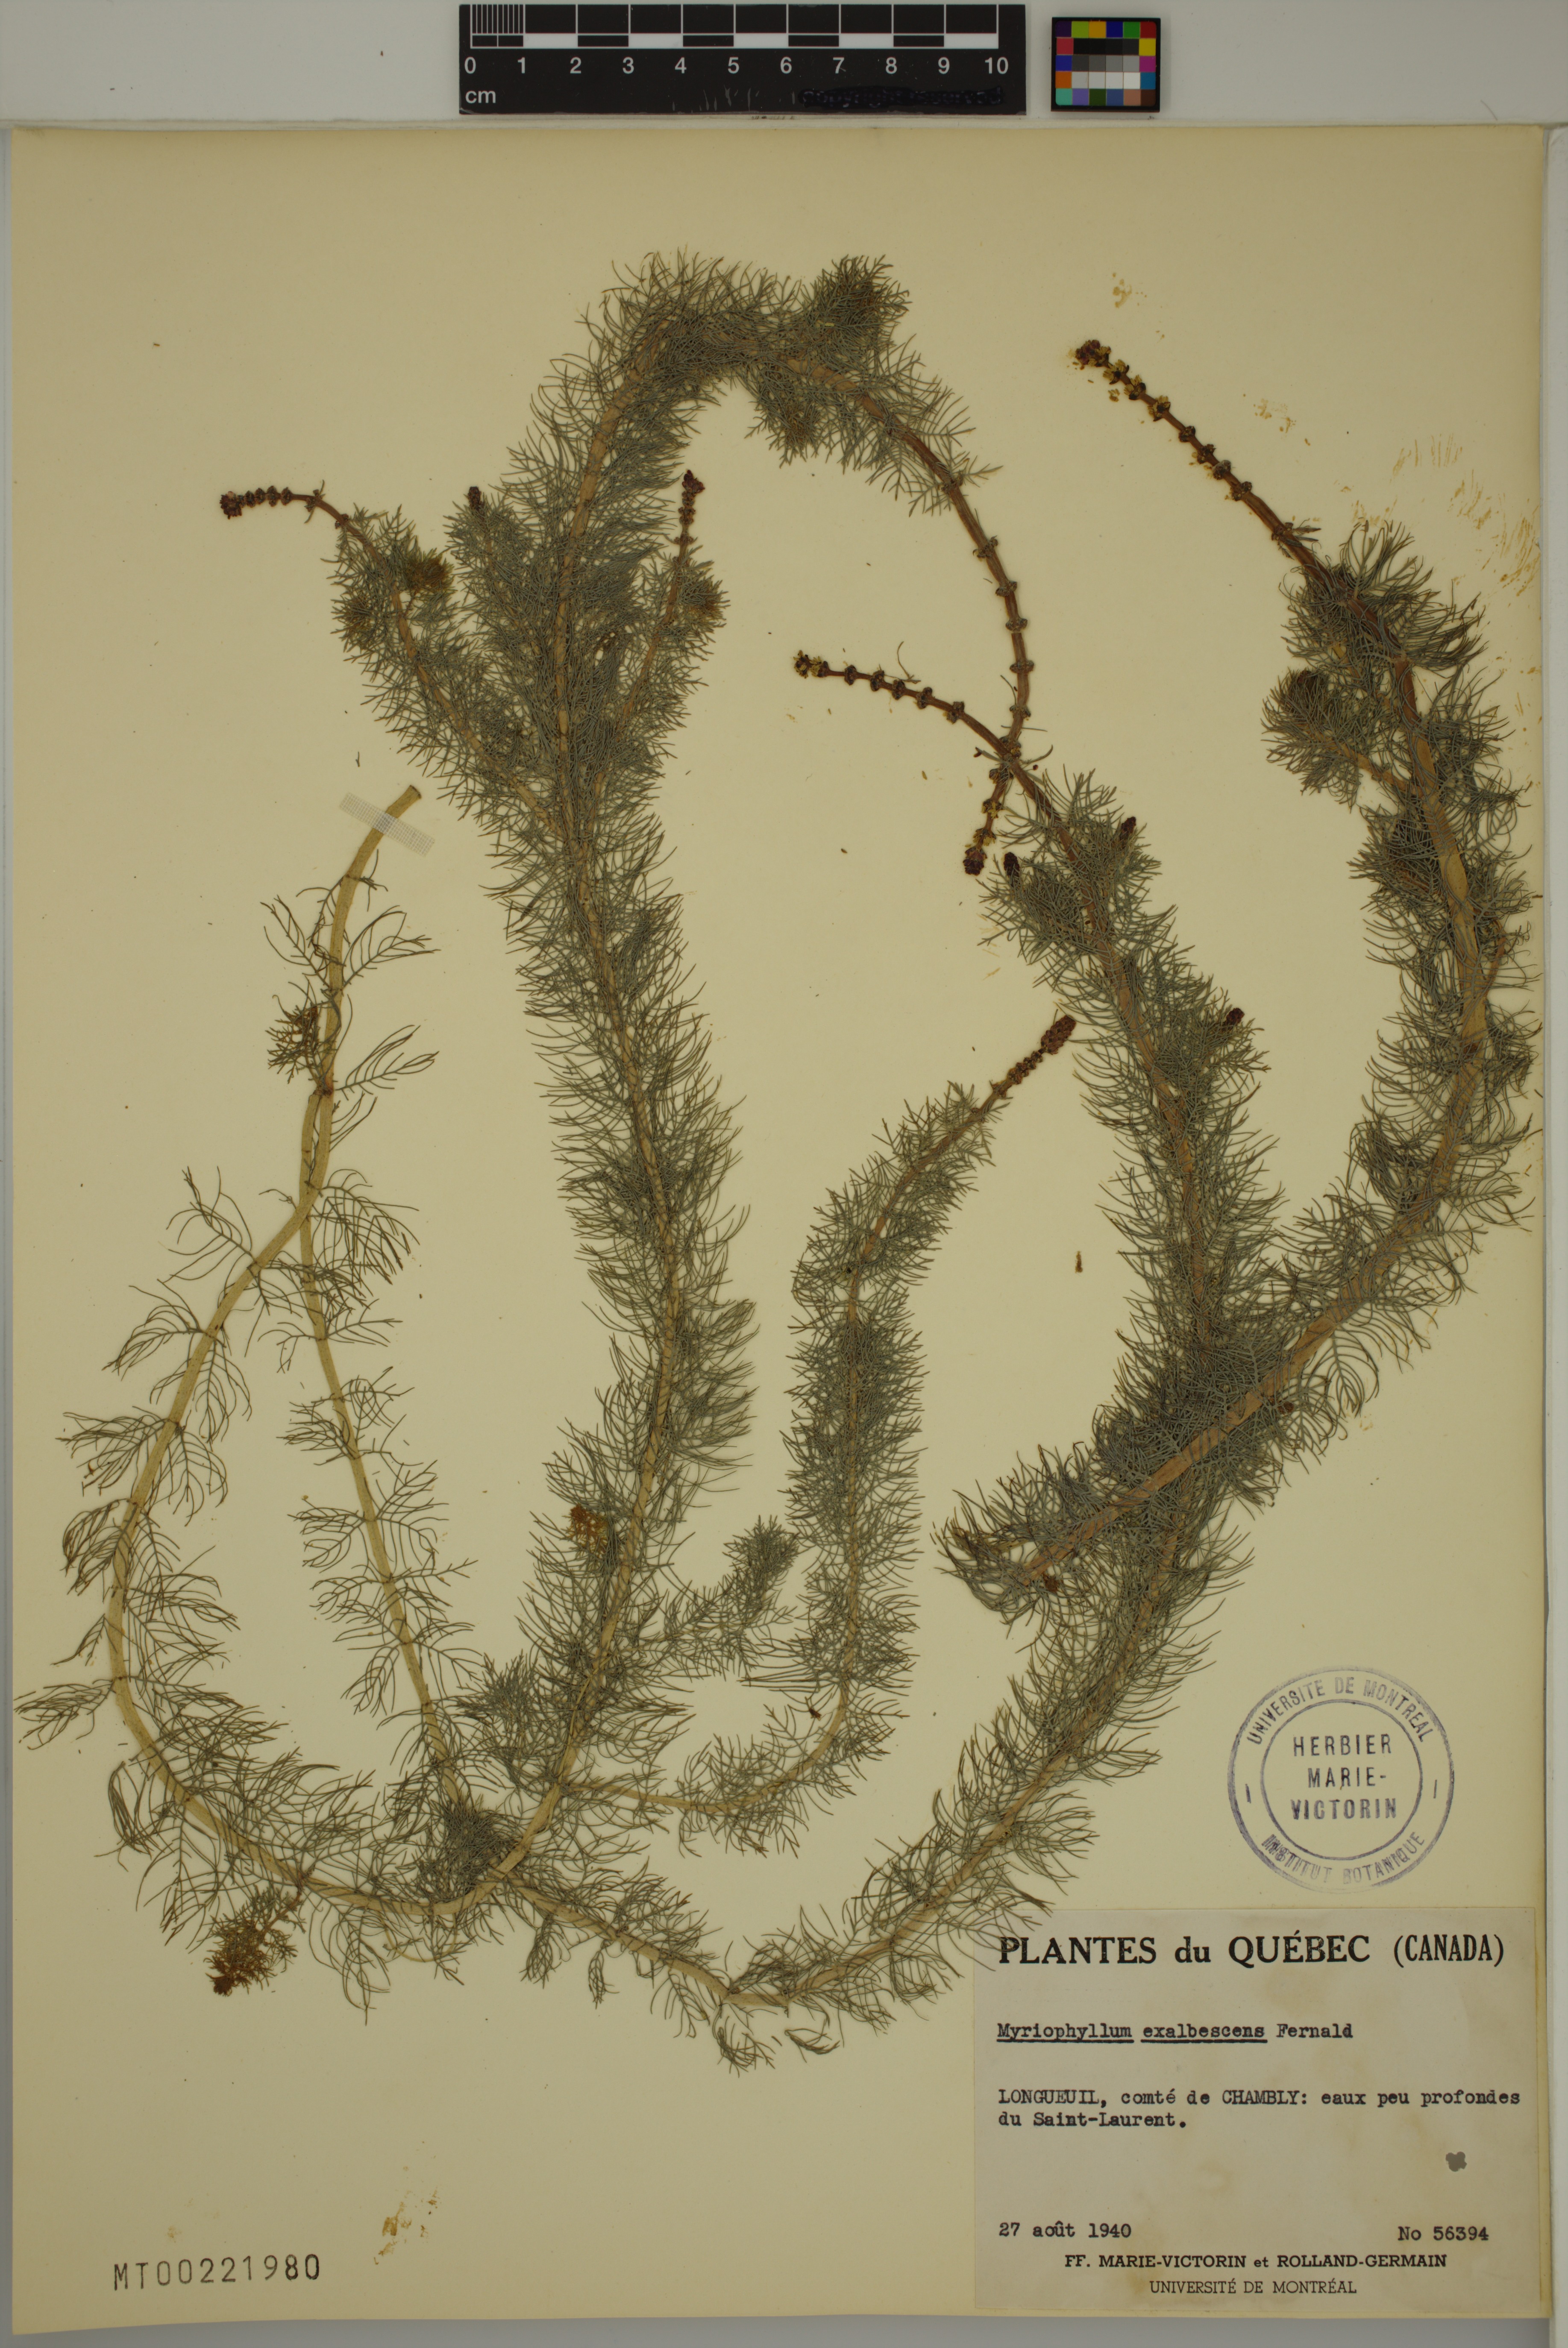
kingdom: Plantae
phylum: Tracheophyta
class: Magnoliopsida
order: Saxifragales
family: Haloragaceae
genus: Myriophyllum
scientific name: Myriophyllum sibiricum
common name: Siberian water-milfoil
